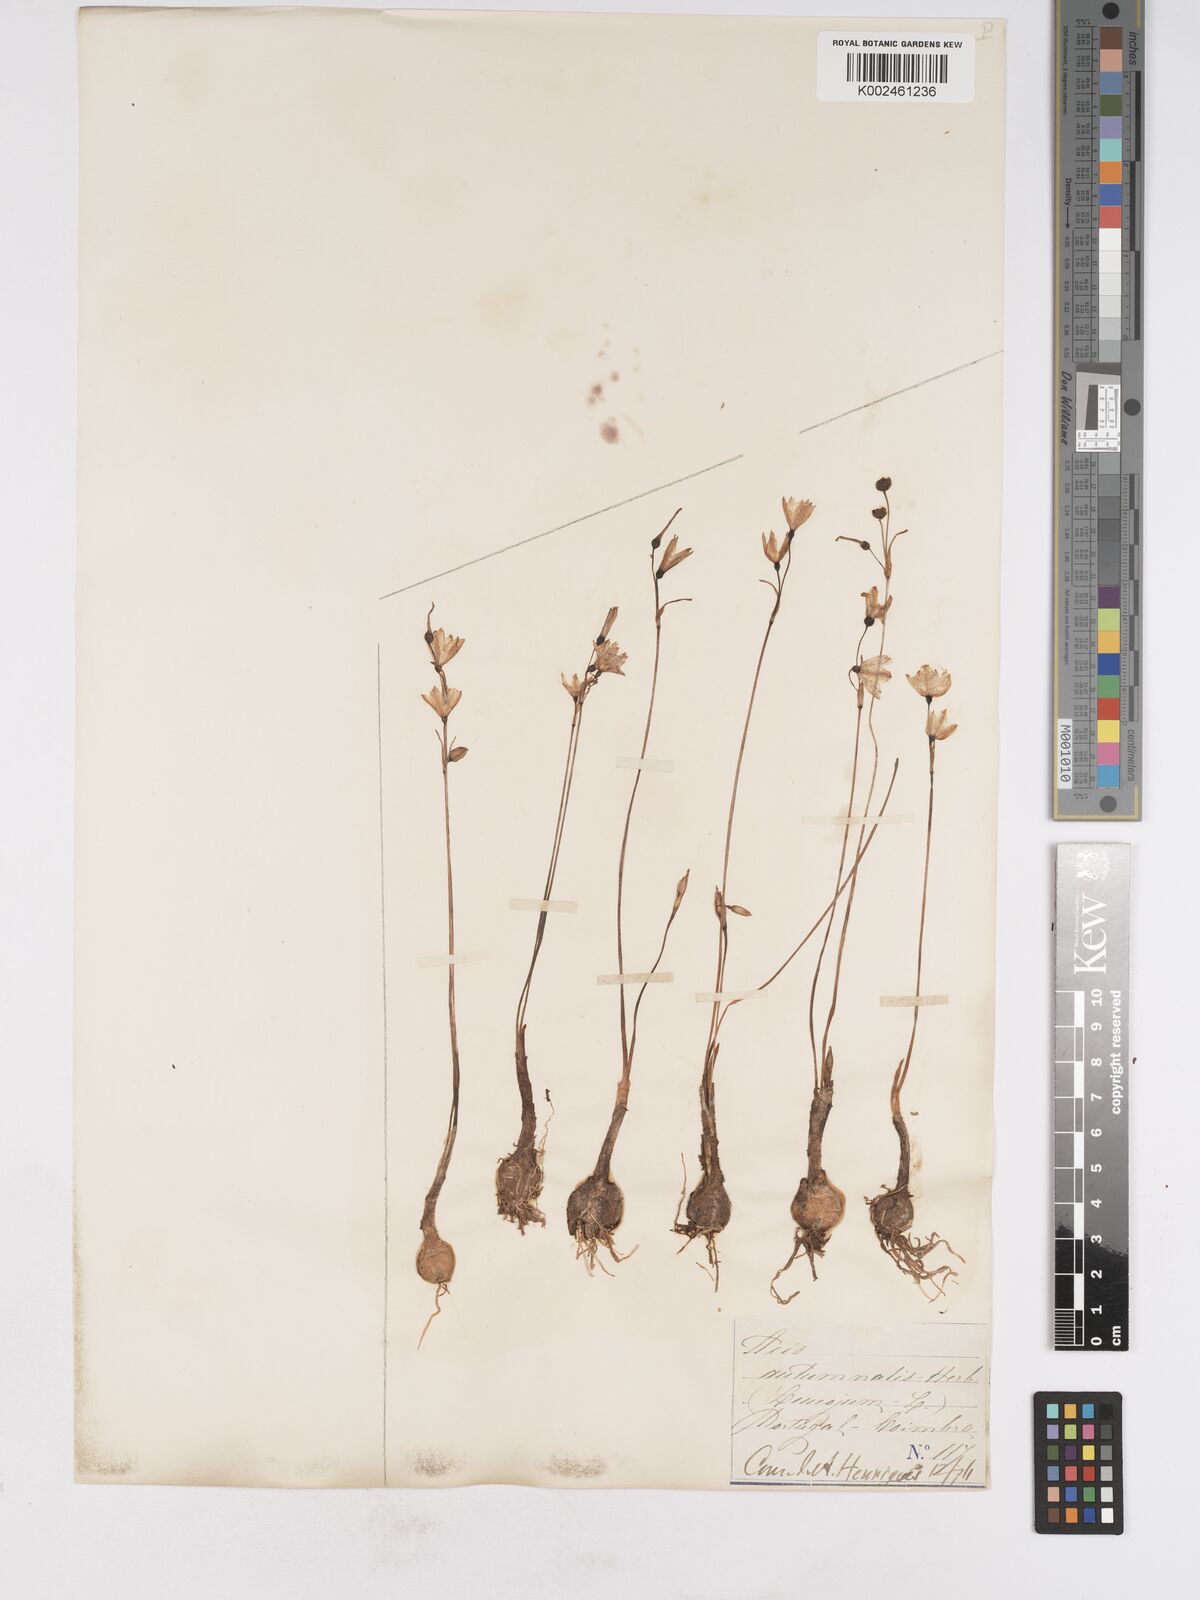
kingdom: Plantae
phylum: Tracheophyta
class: Liliopsida
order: Asparagales
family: Amaryllidaceae
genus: Acis
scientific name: Acis autumnalis
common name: Autumn snowflake
